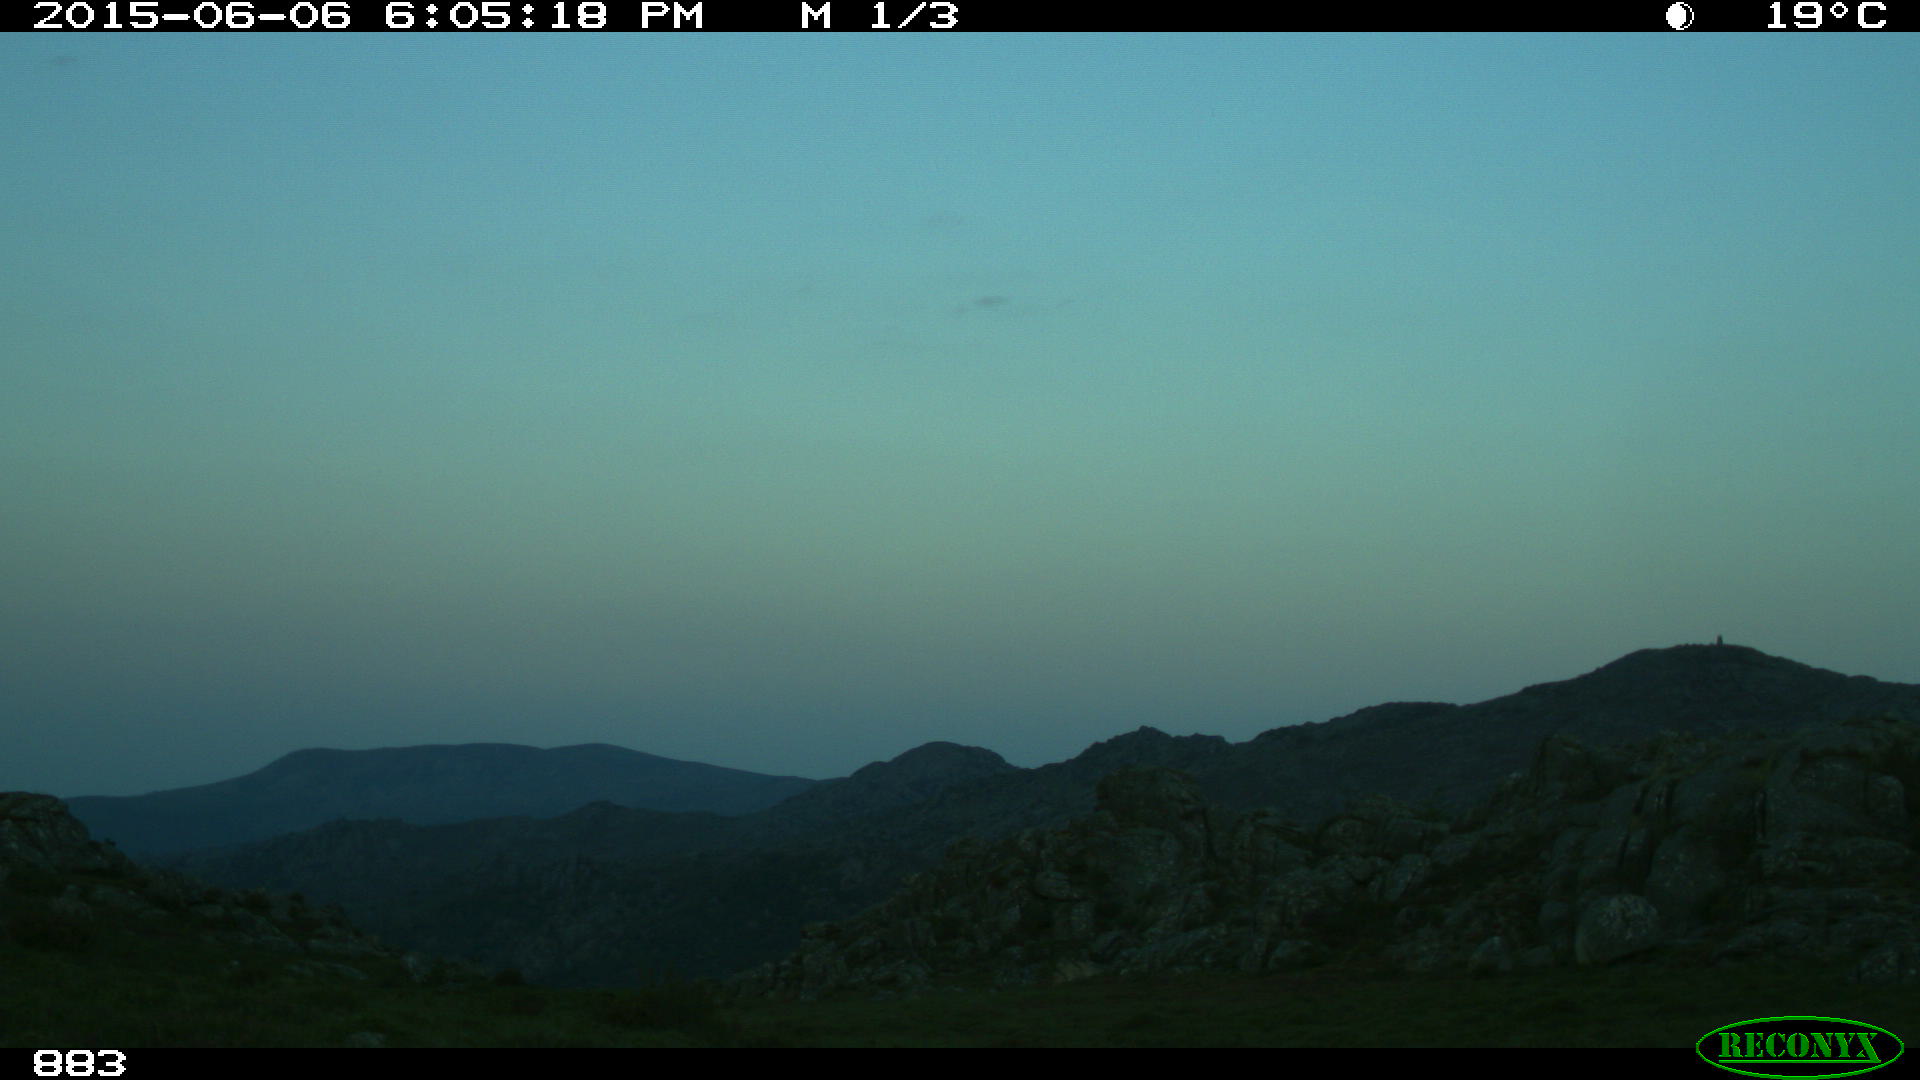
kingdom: Animalia
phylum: Chordata
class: Mammalia
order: Artiodactyla
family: Bovidae
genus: Bos
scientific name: Bos taurus
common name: Domesticated cattle
